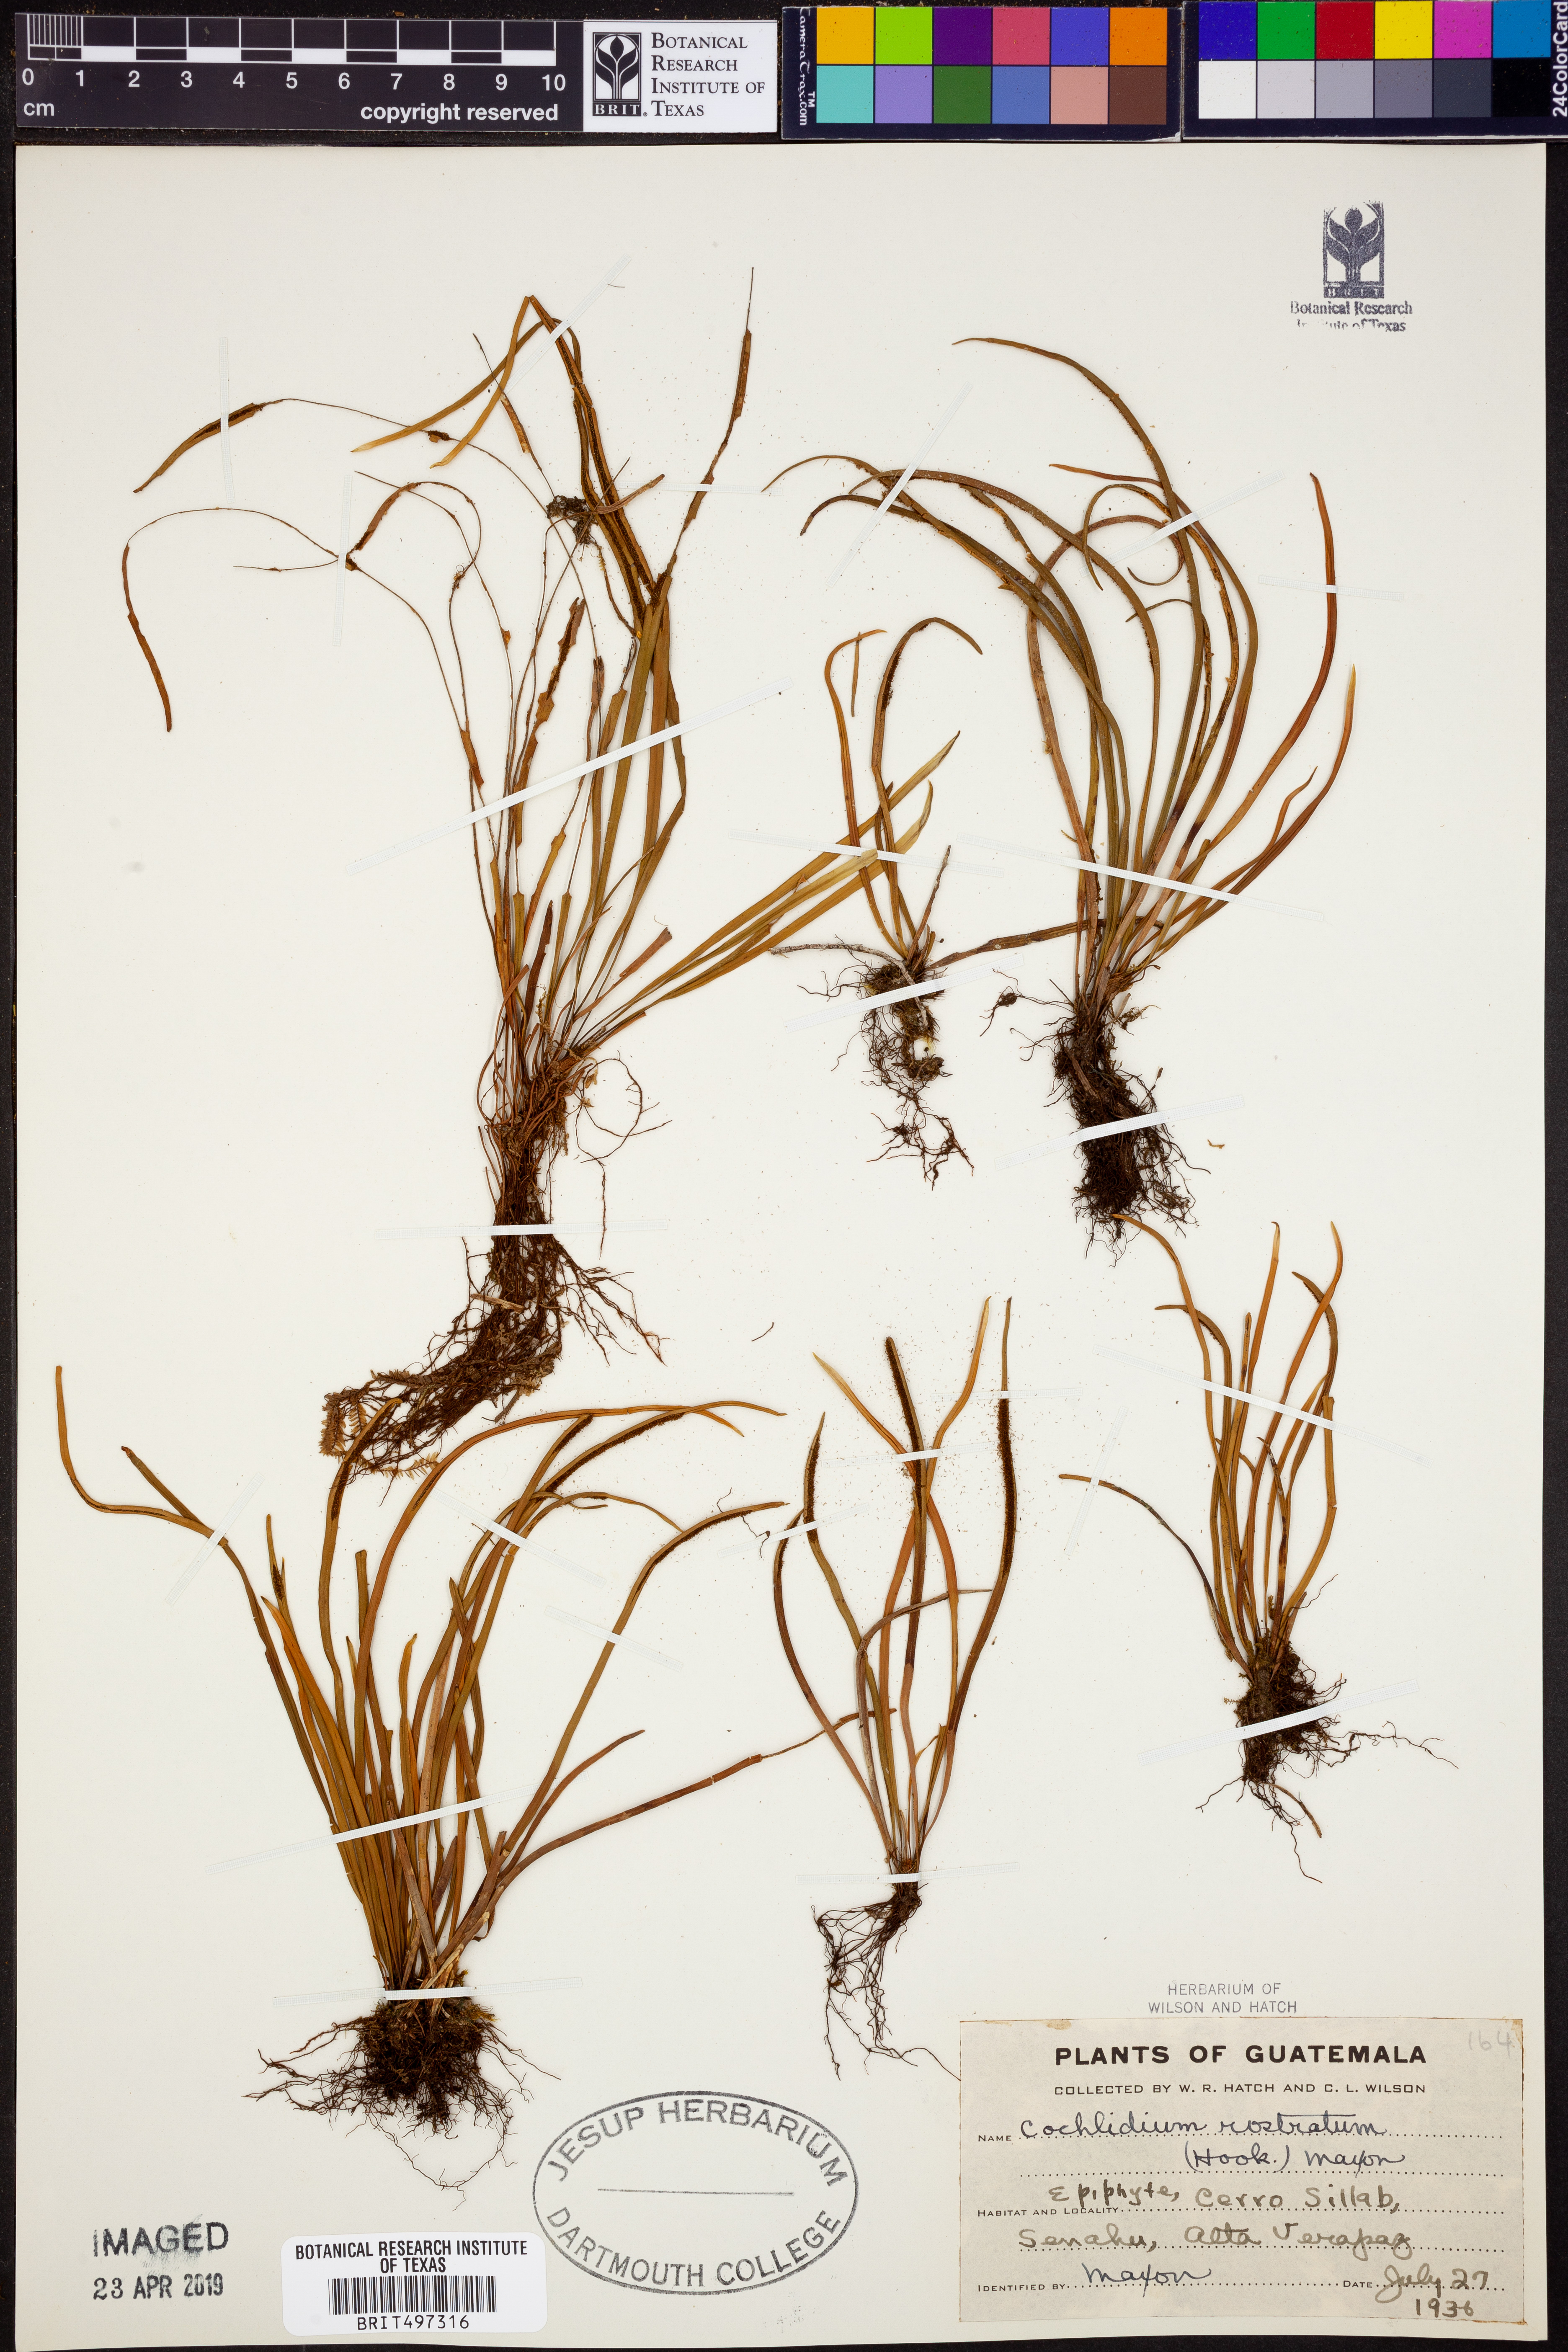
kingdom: Plantae
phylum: Tracheophyta
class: Polypodiopsida
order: Polypodiales
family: Polypodiaceae
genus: Cochlidium
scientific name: Cochlidium rostratum
